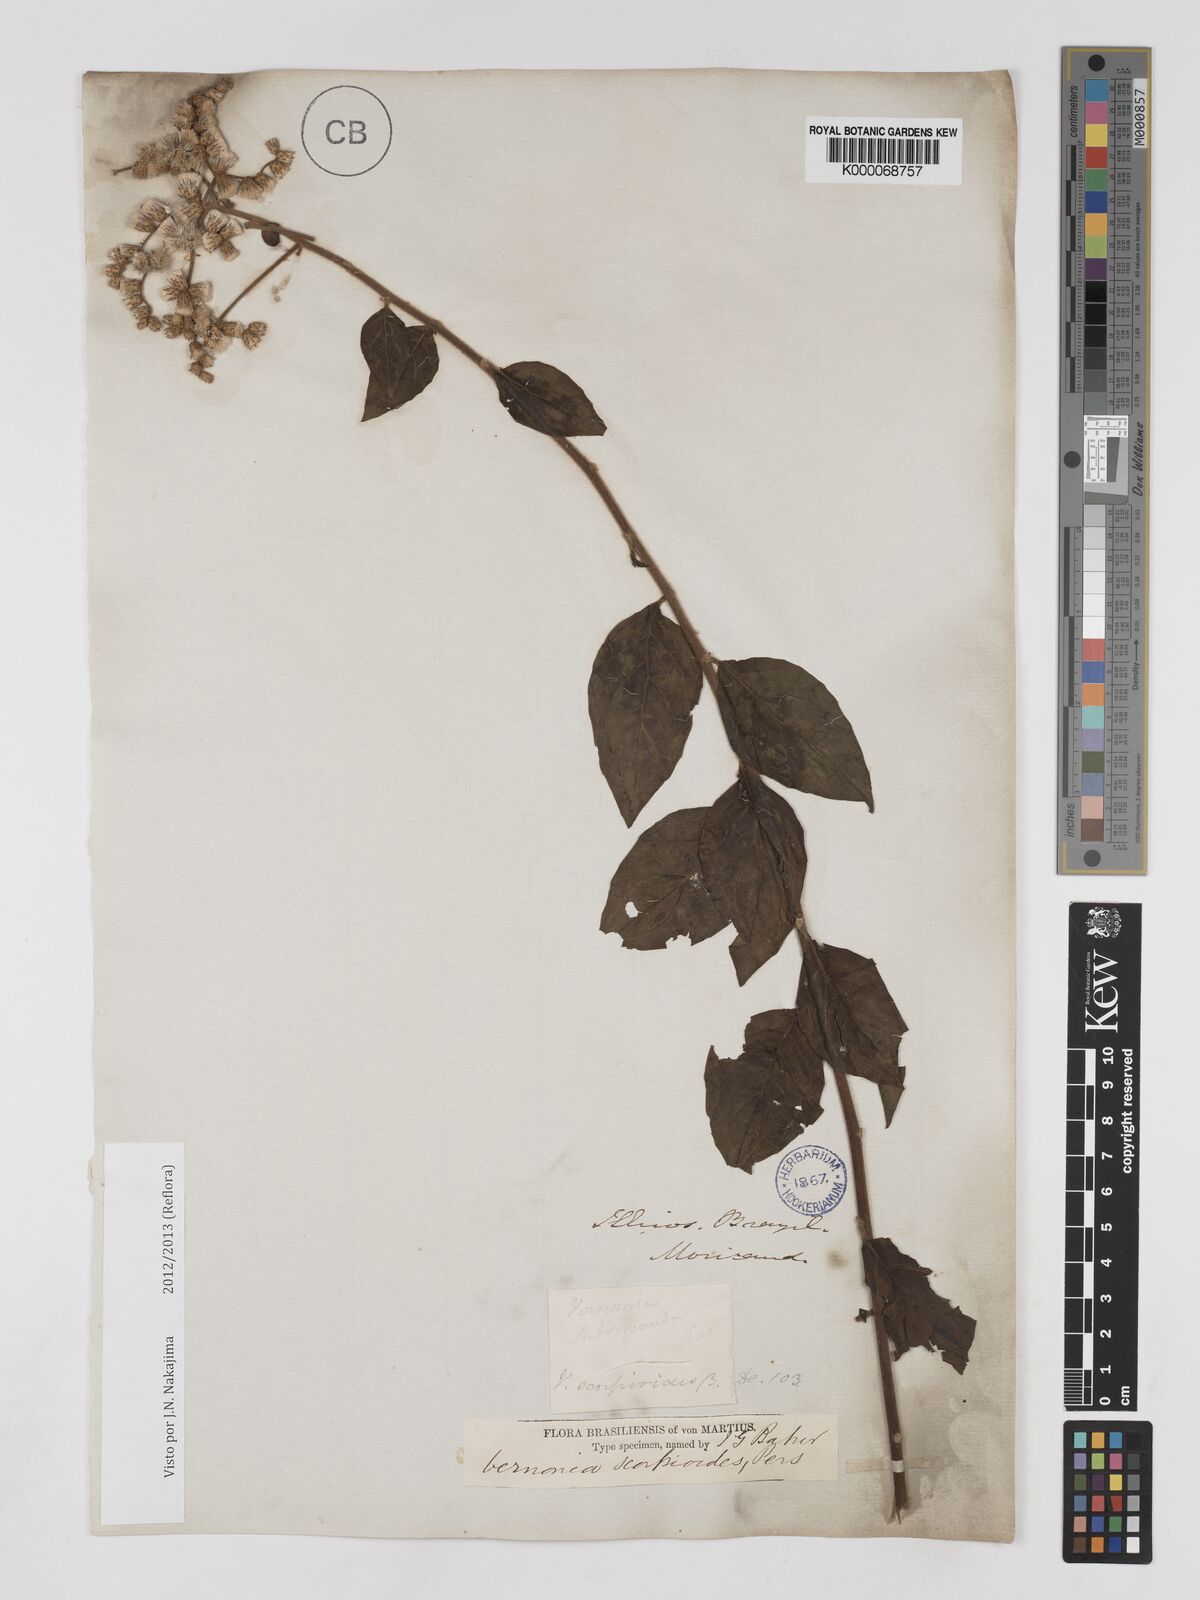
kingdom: Plantae
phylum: Tracheophyta
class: Magnoliopsida
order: Asterales
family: Asteraceae
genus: Cyrtocymura
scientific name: Cyrtocymura scorpioides
